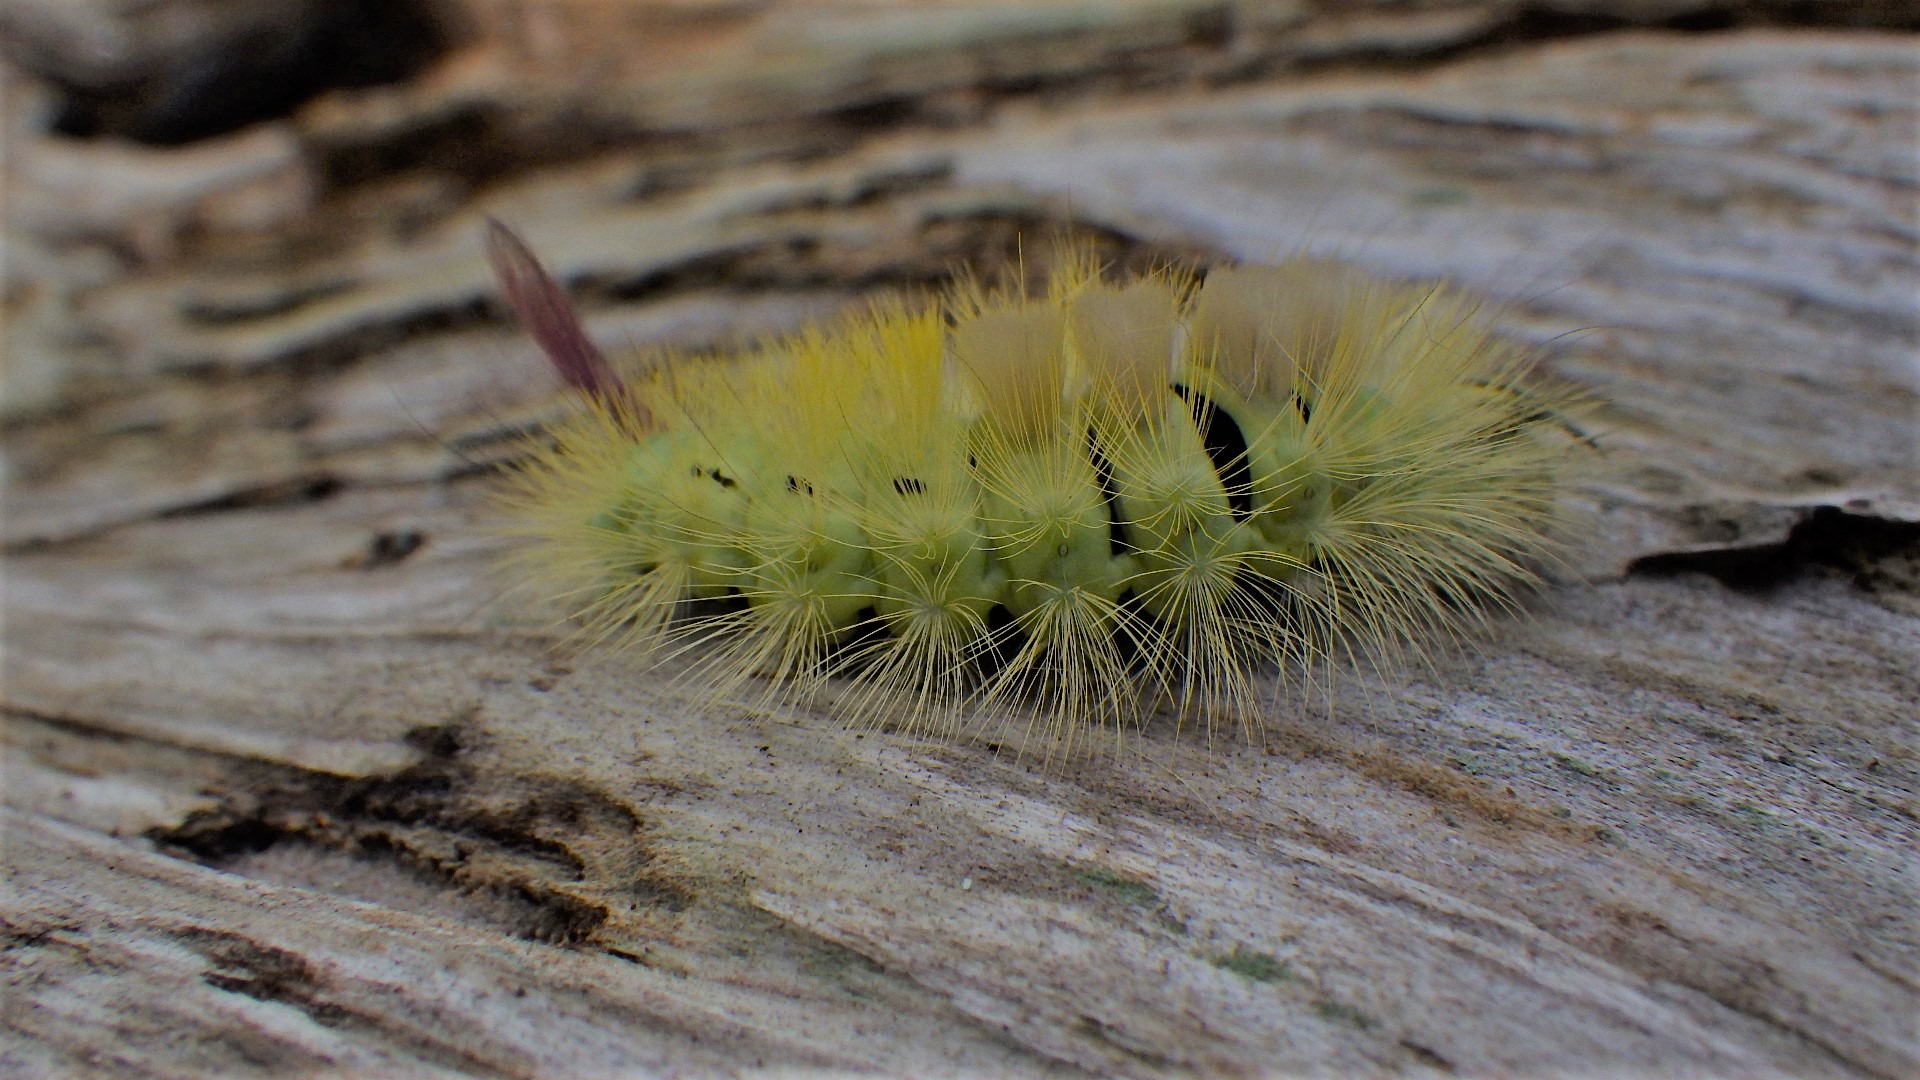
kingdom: Animalia
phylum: Arthropoda
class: Insecta
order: Lepidoptera
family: Erebidae
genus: Calliteara
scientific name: Calliteara pudibunda
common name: Bøgenonne
